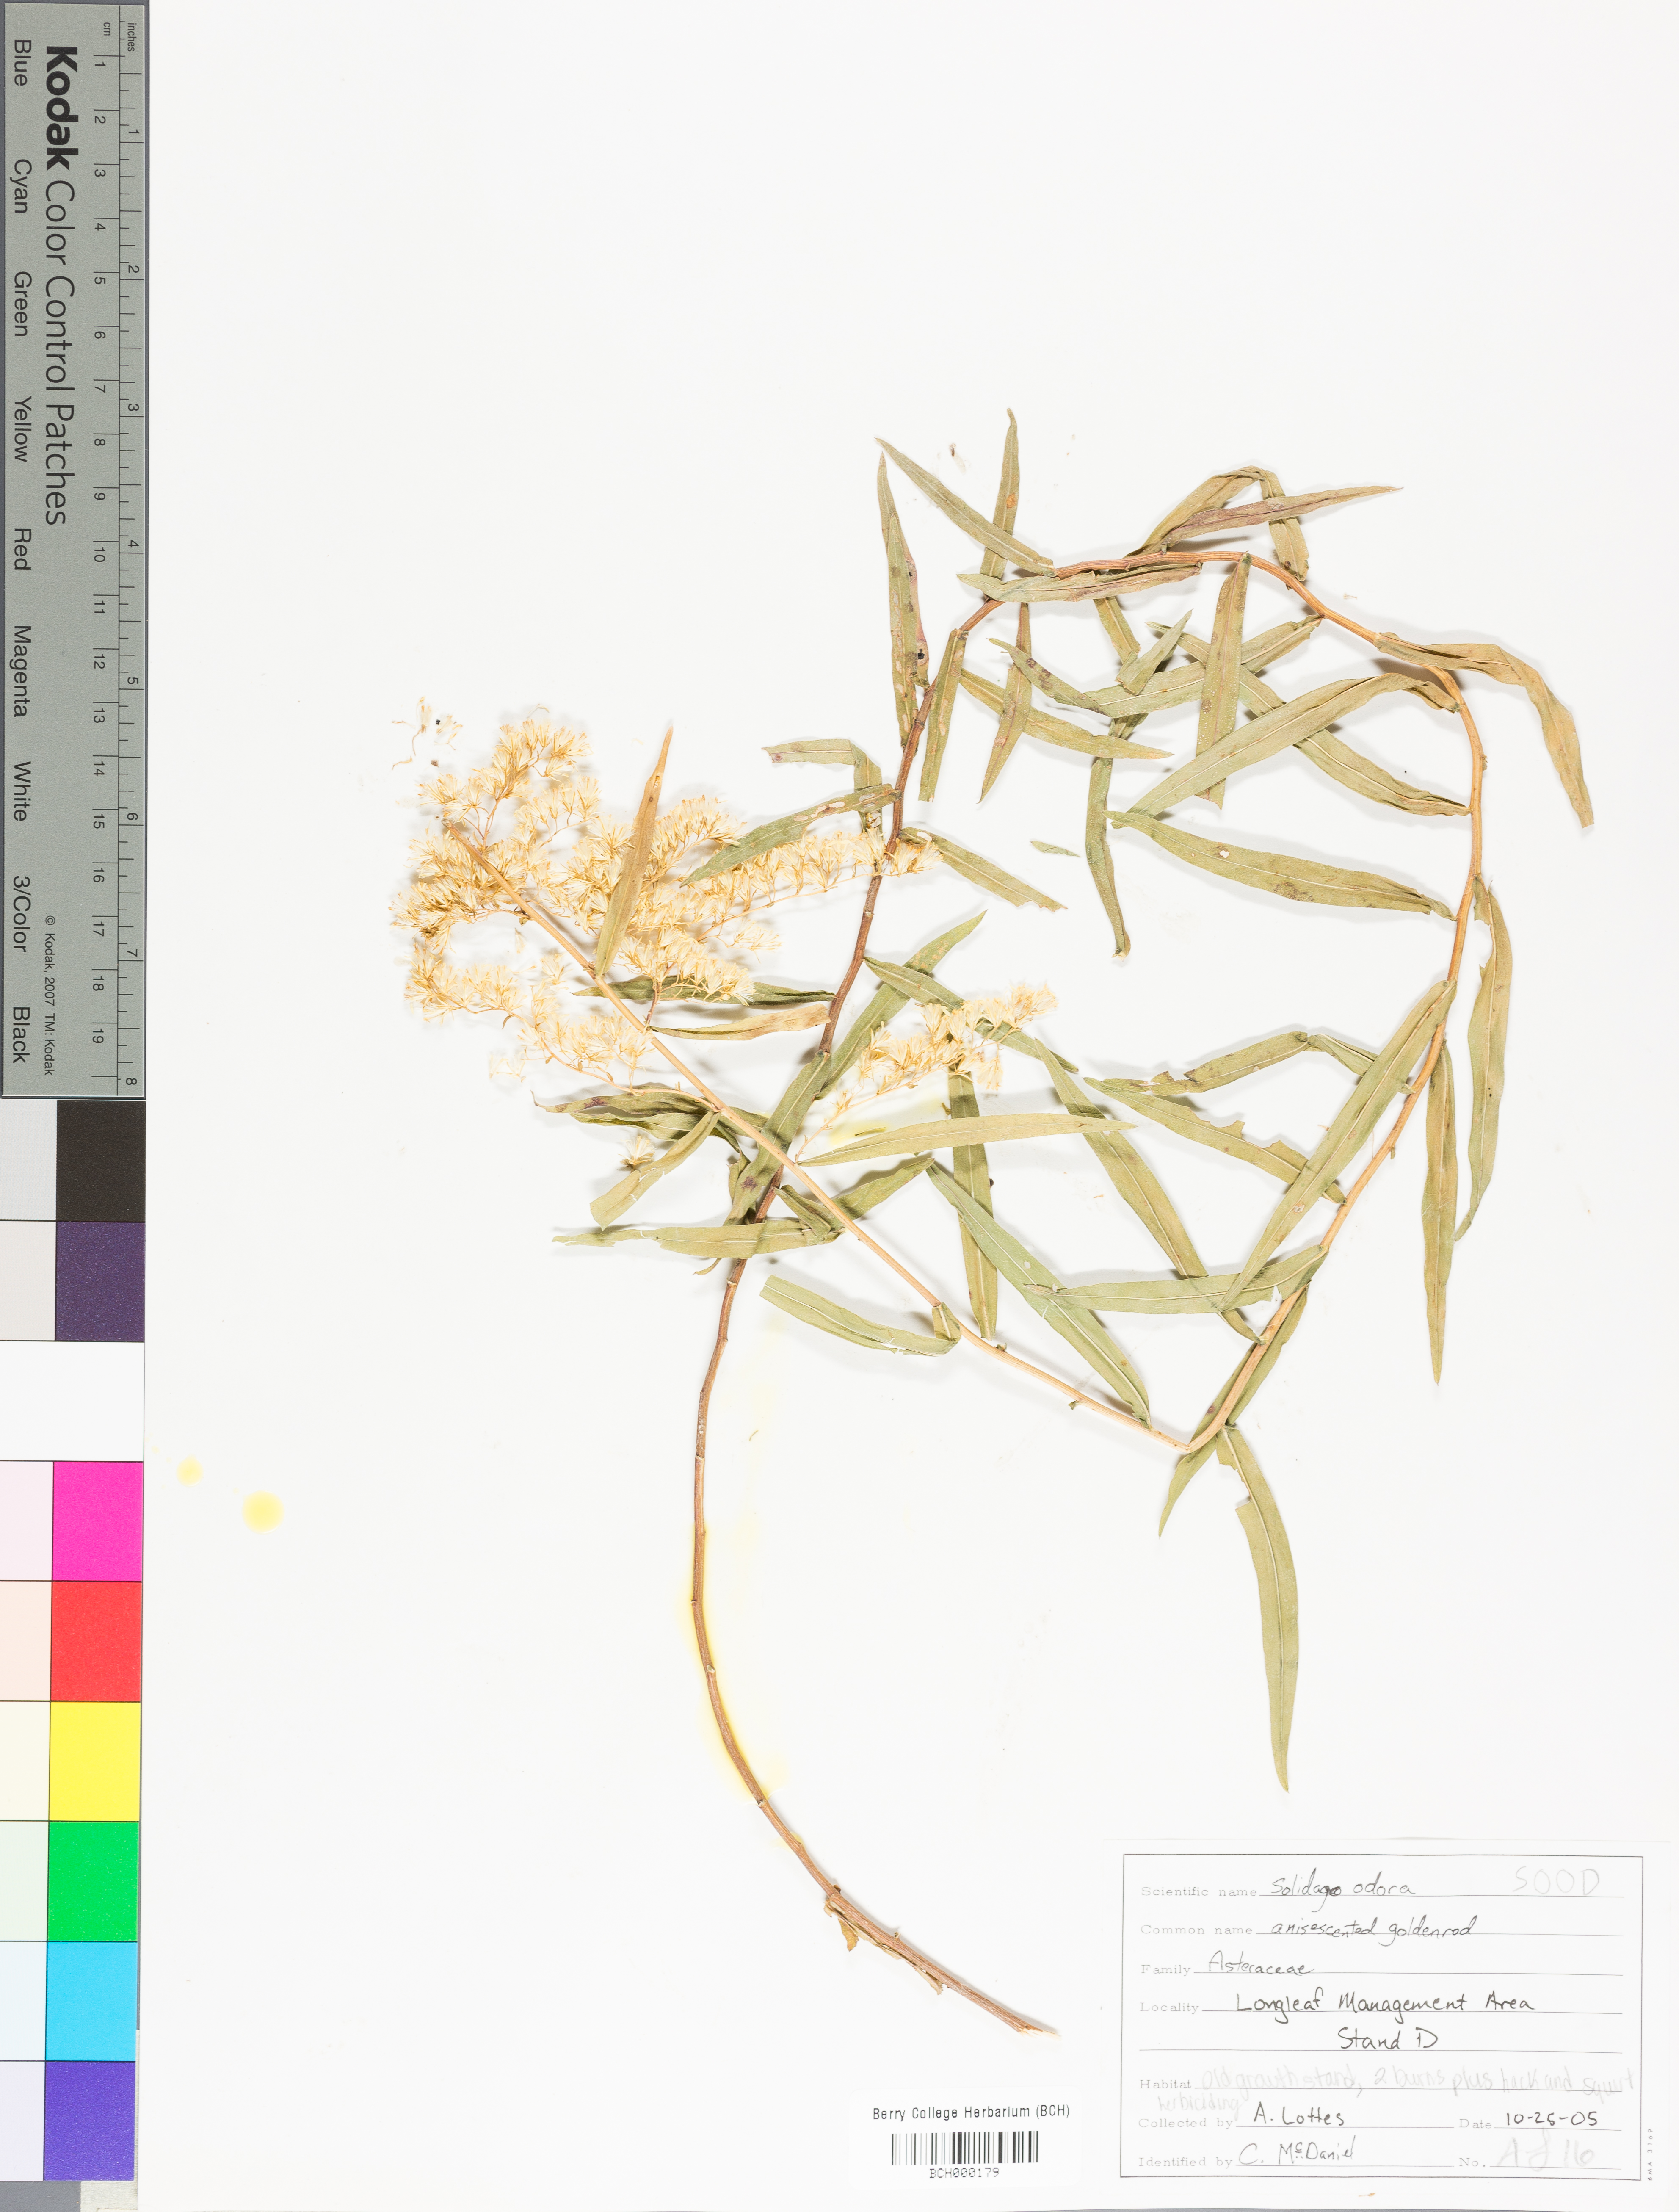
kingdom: Plantae
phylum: Tracheophyta
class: Magnoliopsida
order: Asterales
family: Asteraceae
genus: Solidago
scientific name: Solidago odora
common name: Anise-scented goldenrod
